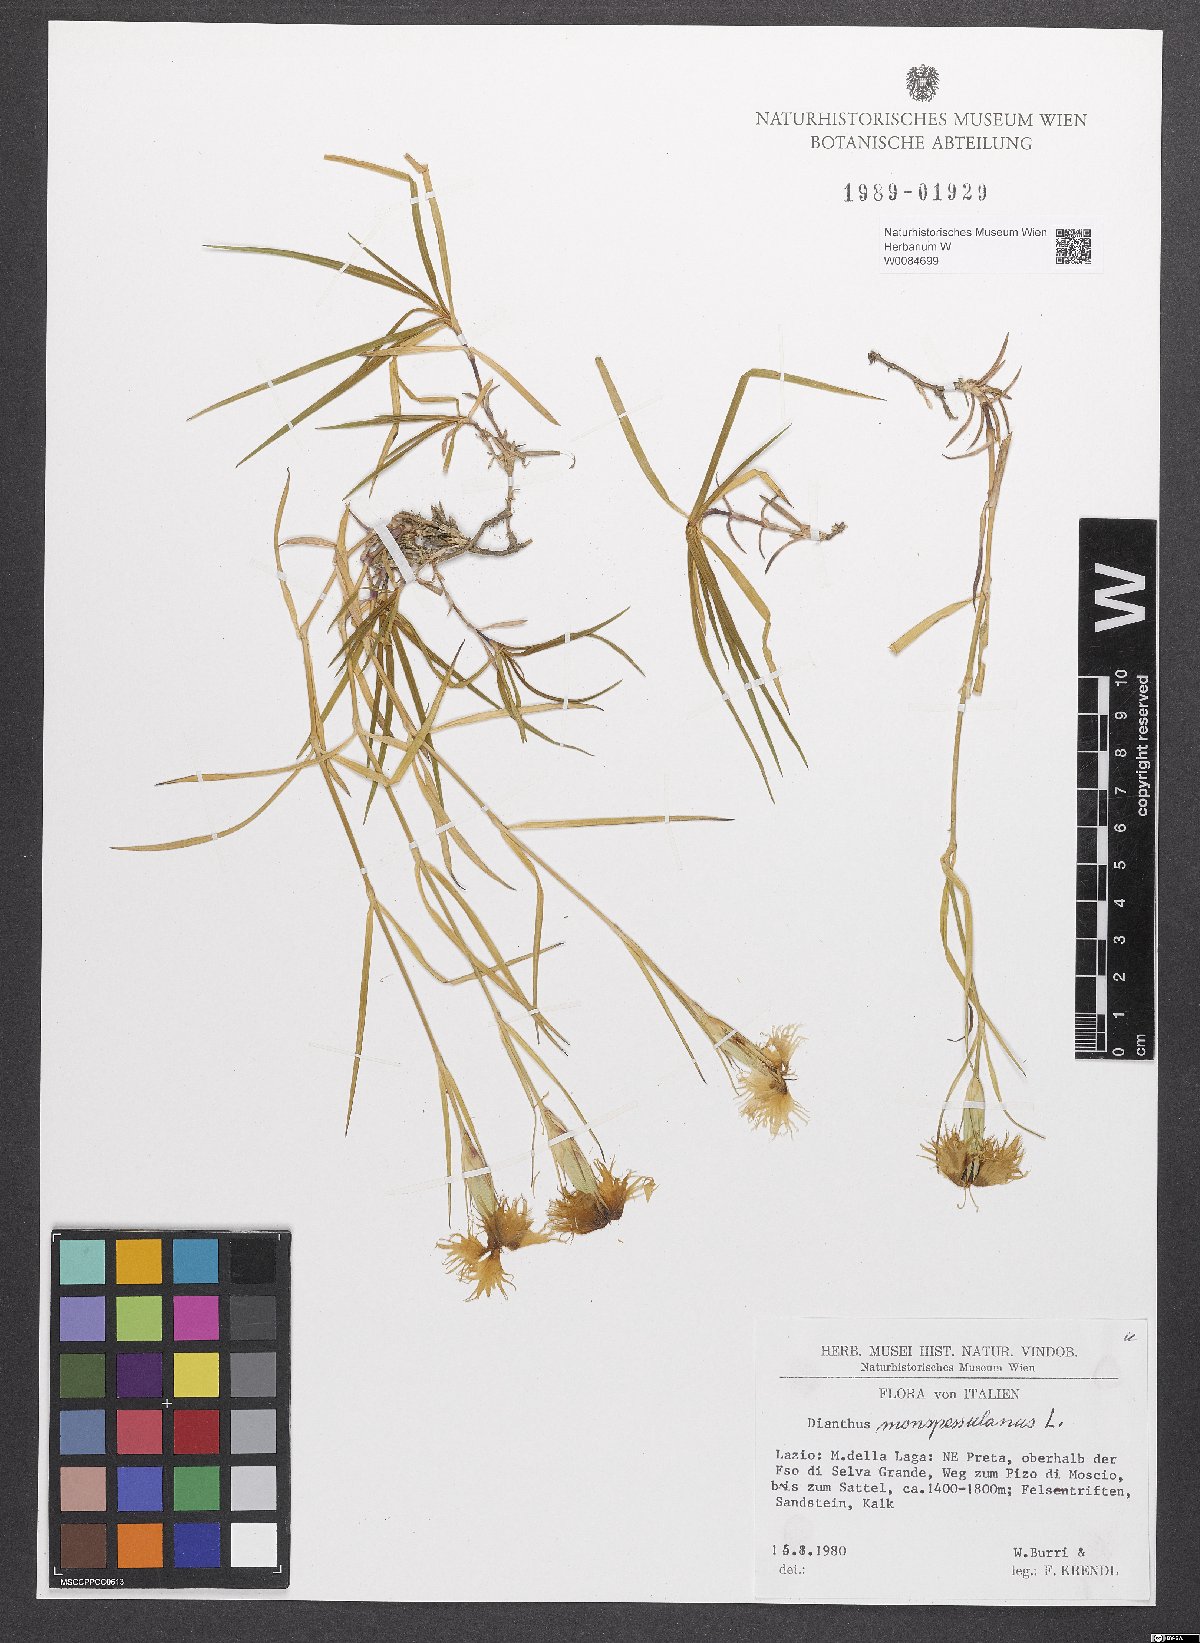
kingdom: Plantae
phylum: Tracheophyta
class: Magnoliopsida
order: Caryophyllales
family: Caryophyllaceae
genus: Dianthus
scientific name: Dianthus hyssopifolius
